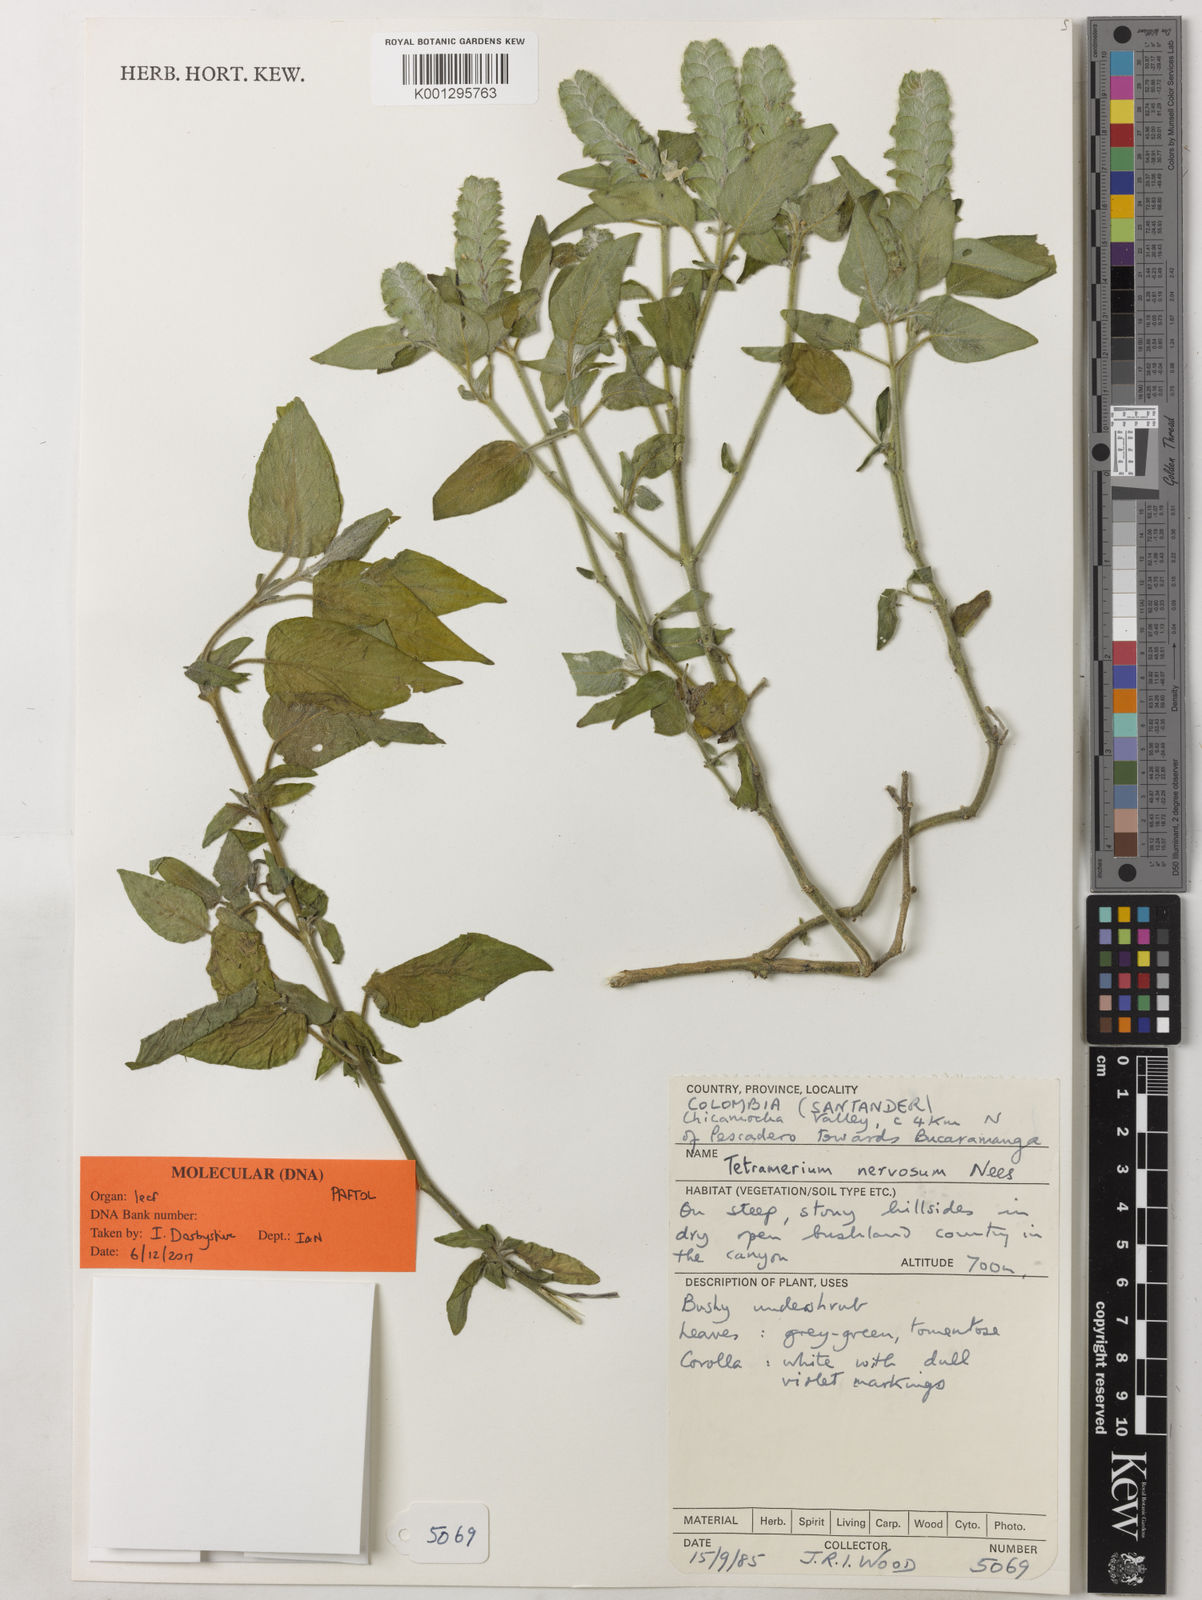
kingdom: Plantae
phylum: Tracheophyta
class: Magnoliopsida
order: Lamiales
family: Acanthaceae
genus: Tetramerium
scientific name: Tetramerium nervosum
